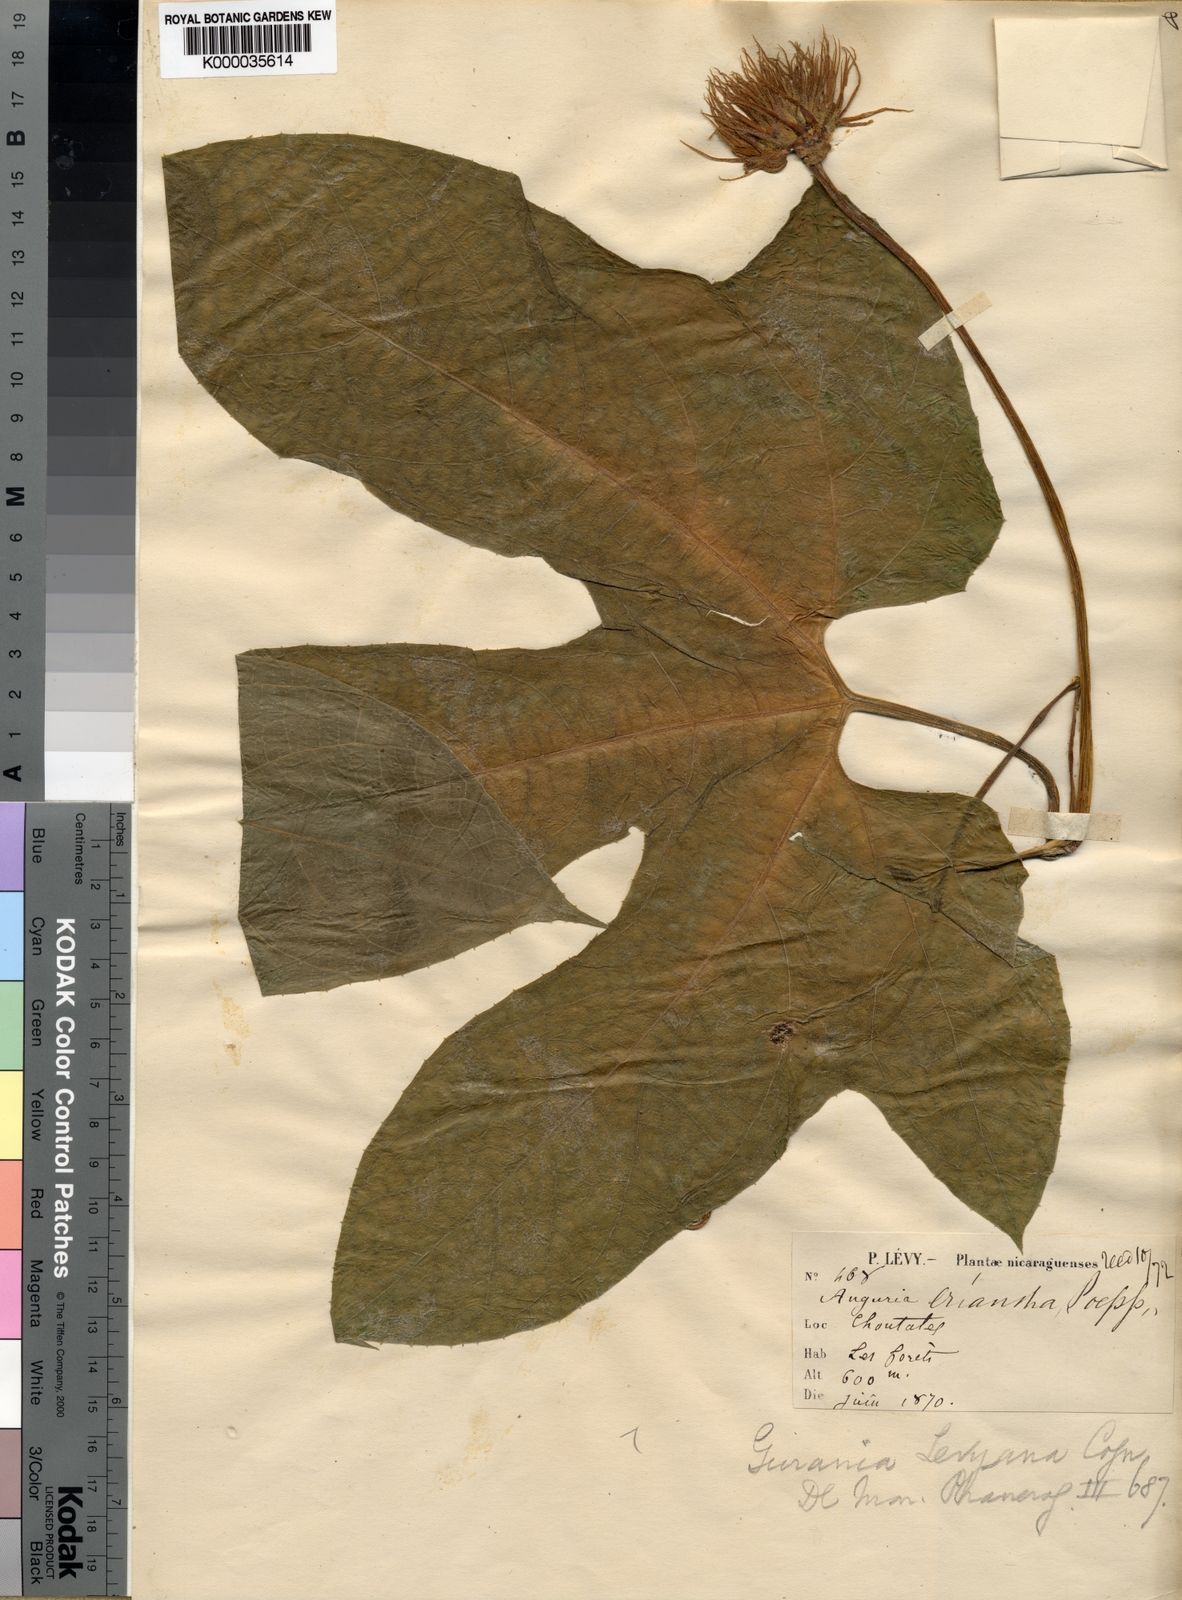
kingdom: Plantae
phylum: Tracheophyta
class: Magnoliopsida
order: Cucurbitales
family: Cucurbitaceae
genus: Gurania
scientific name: Gurania makoyana
